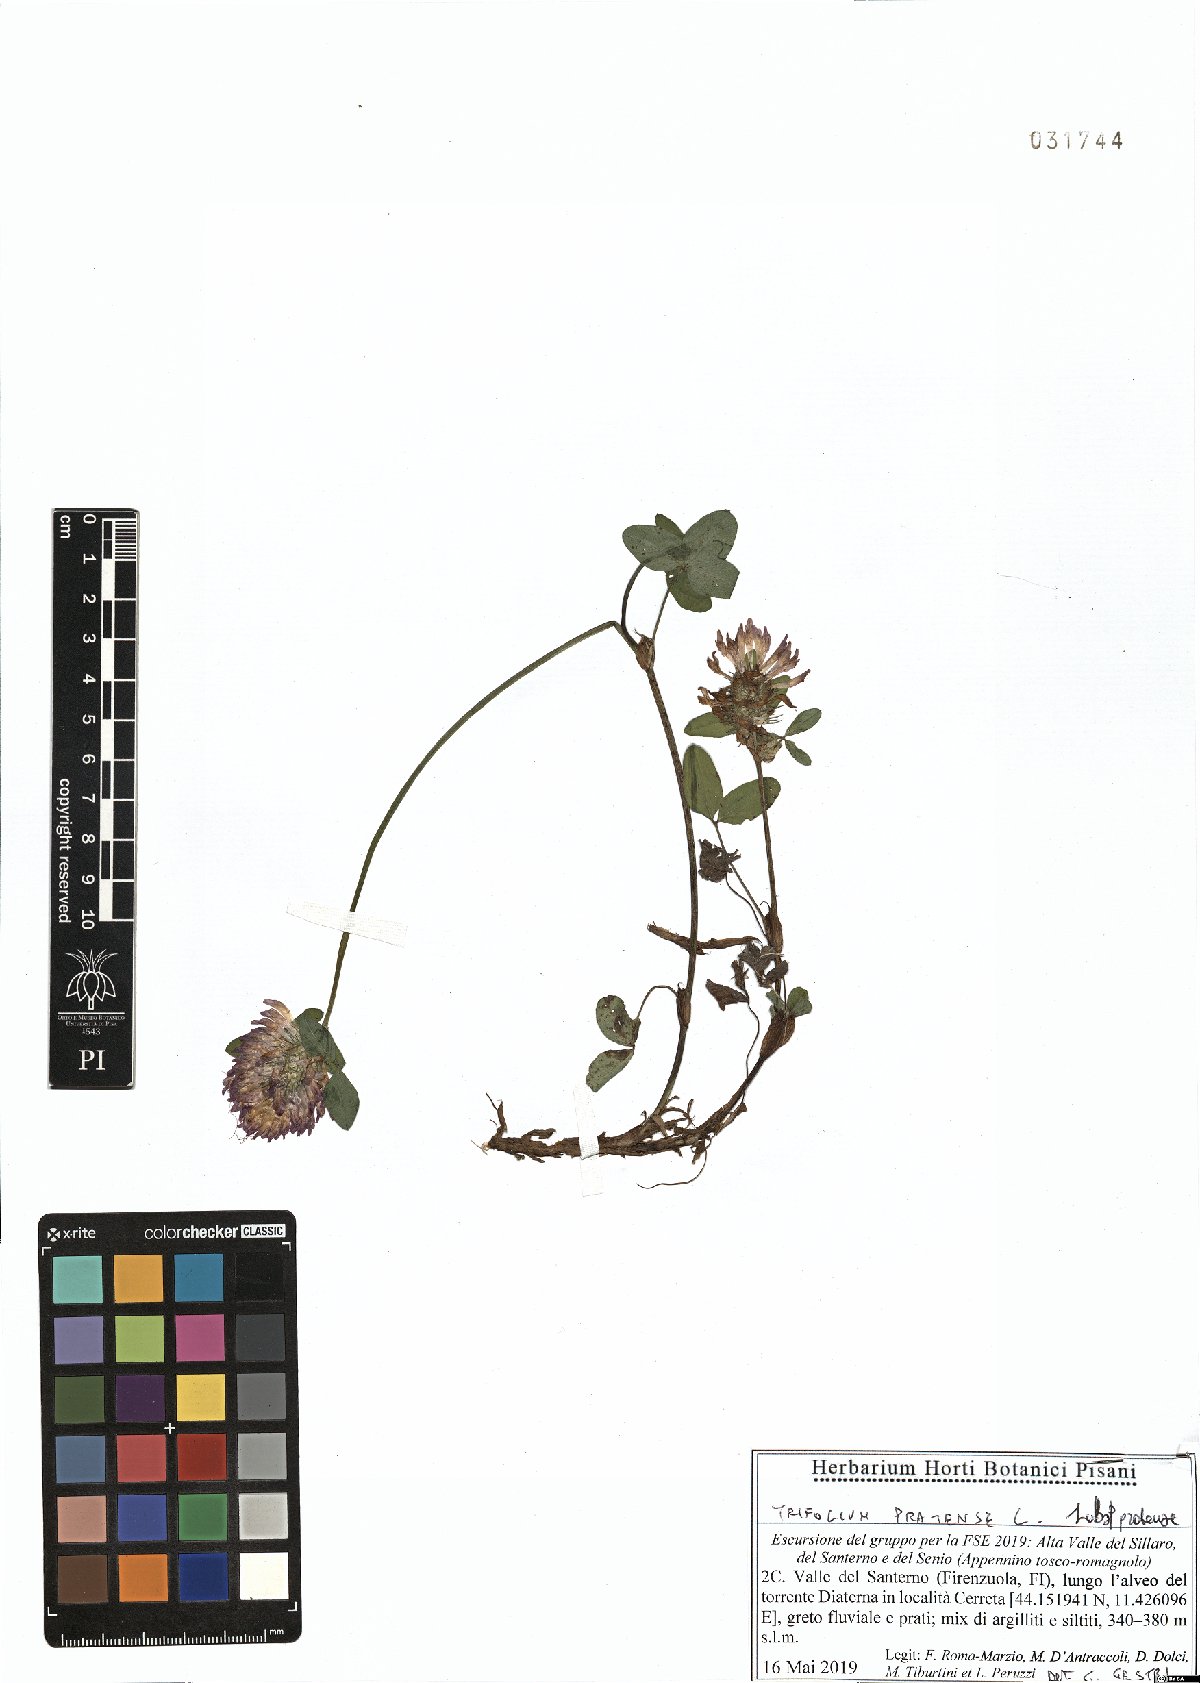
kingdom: Plantae
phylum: Tracheophyta
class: Magnoliopsida
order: Fabales
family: Fabaceae
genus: Trifolium
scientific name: Trifolium pratense
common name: Red clover
